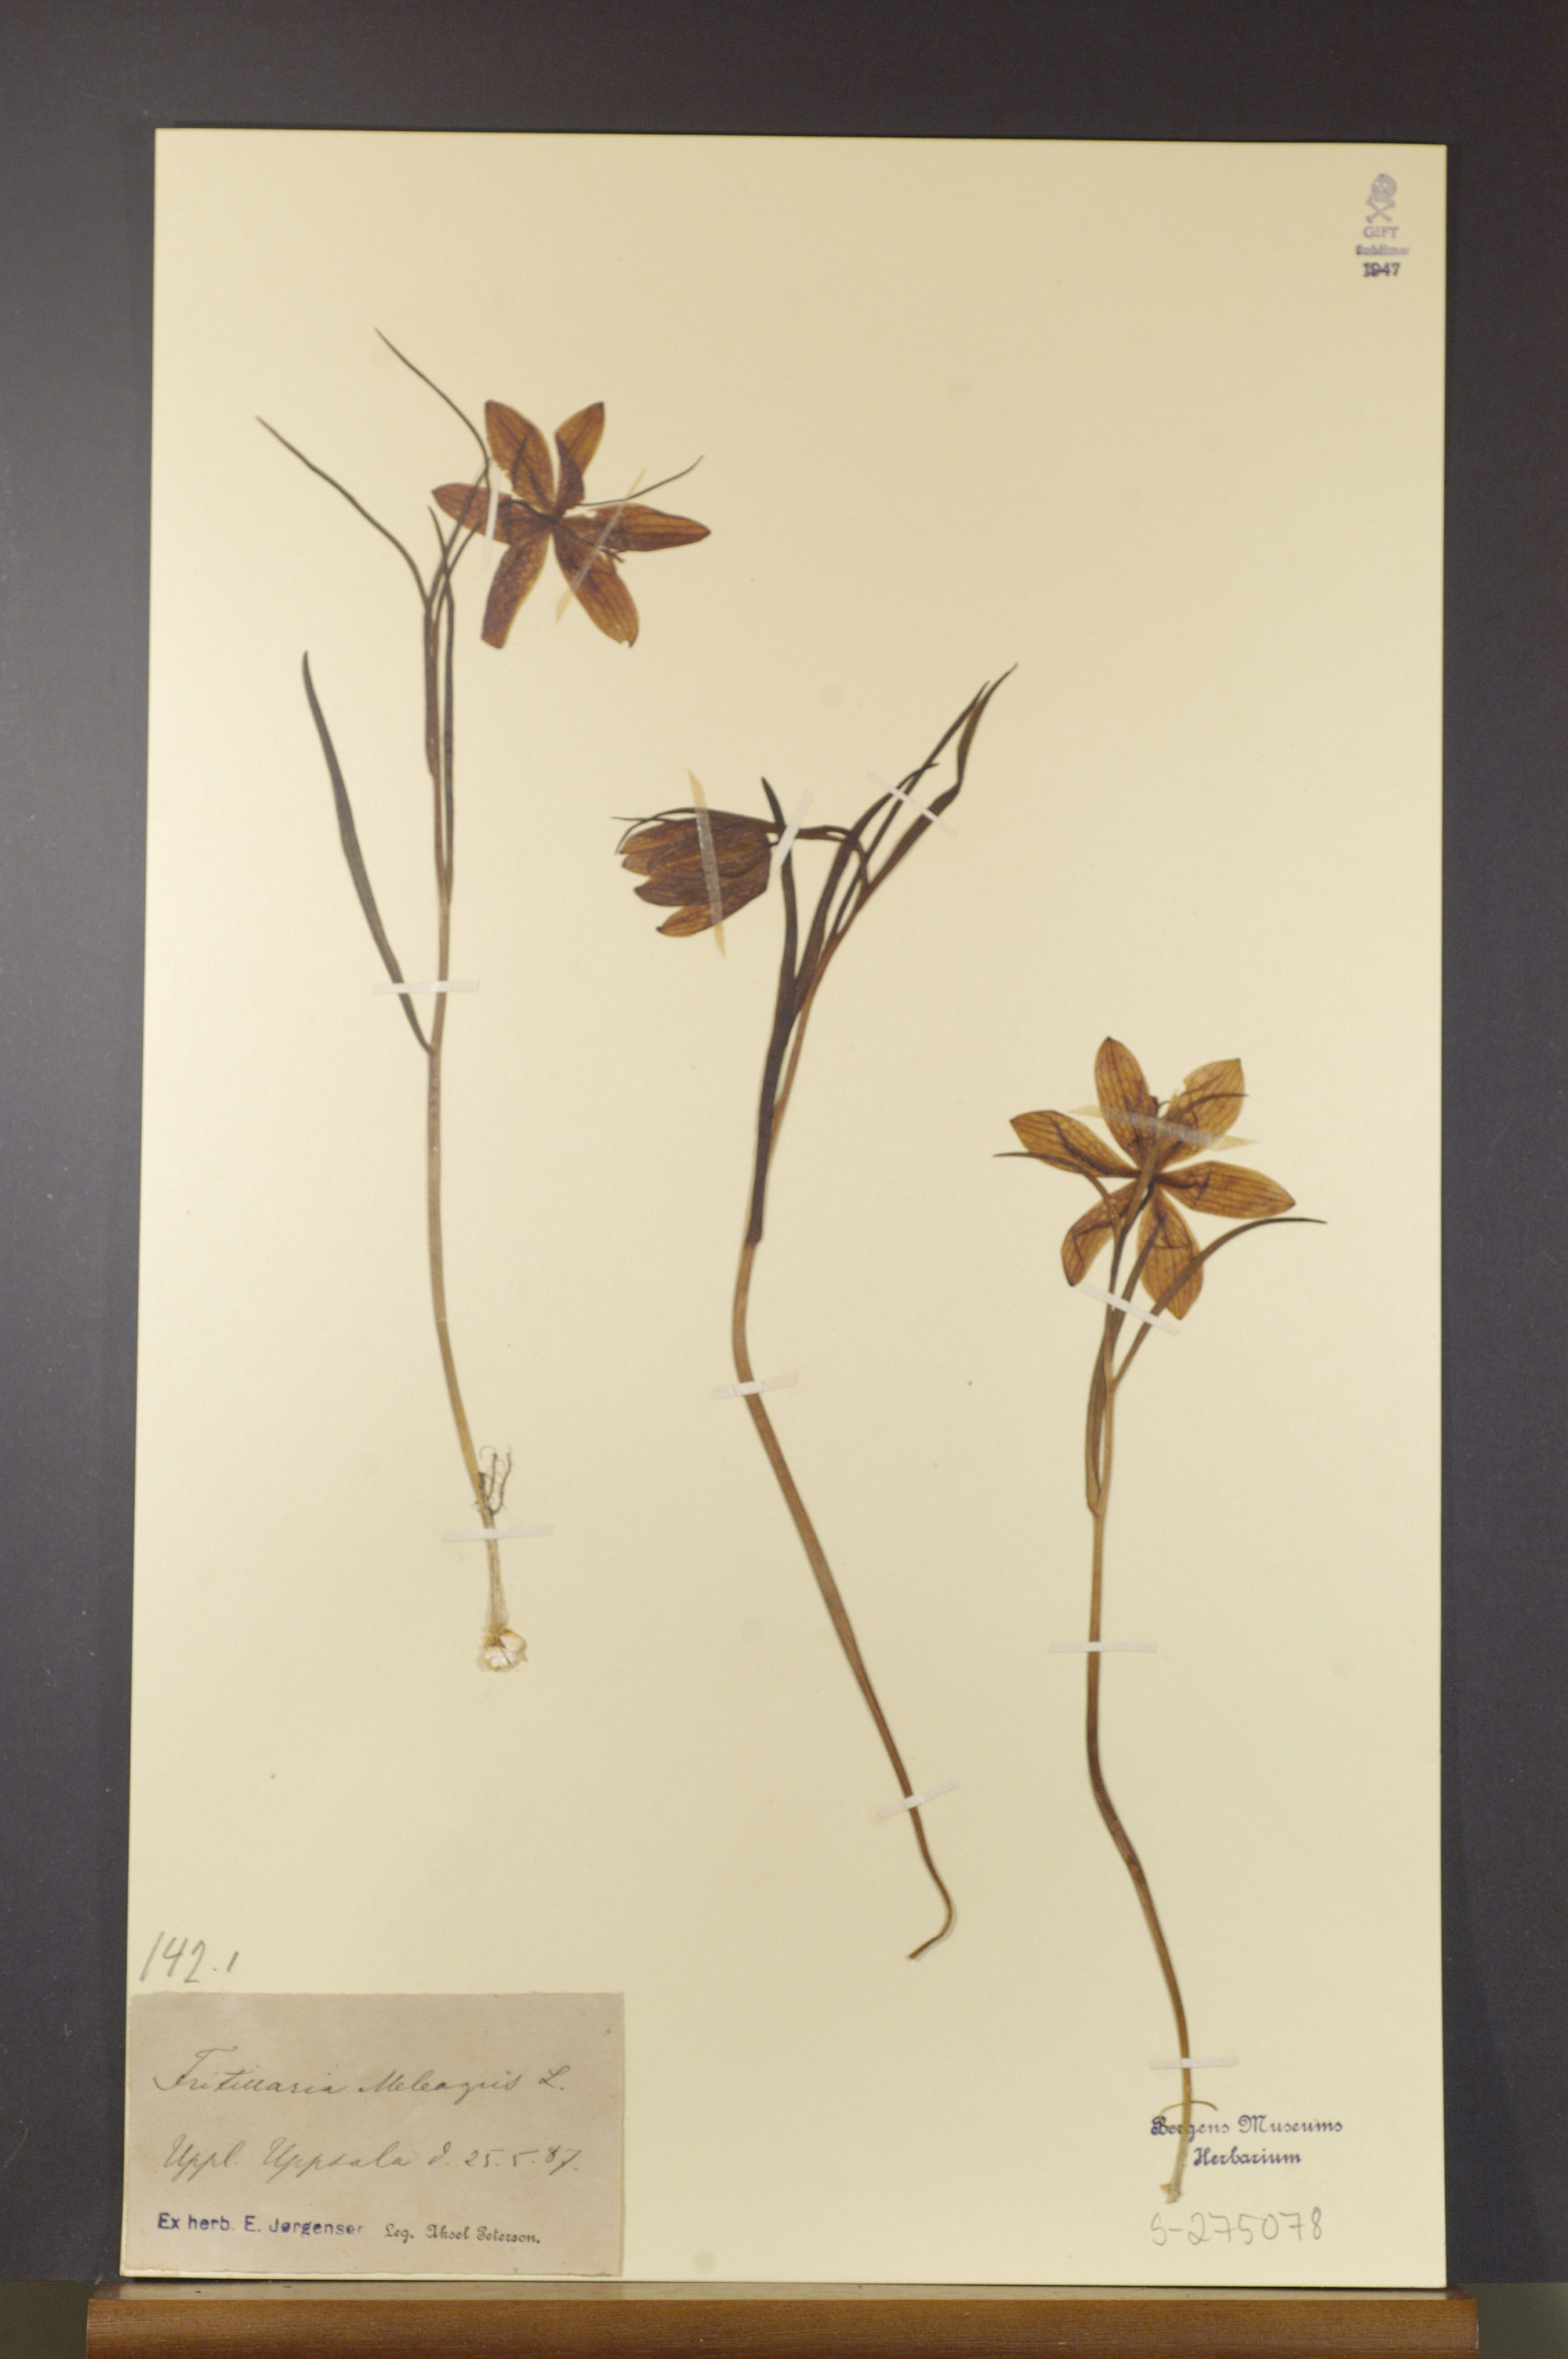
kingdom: Plantae
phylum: Tracheophyta
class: Liliopsida
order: Liliales
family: Liliaceae
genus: Fritillaria
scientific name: Fritillaria meleagris
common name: Fritillary
